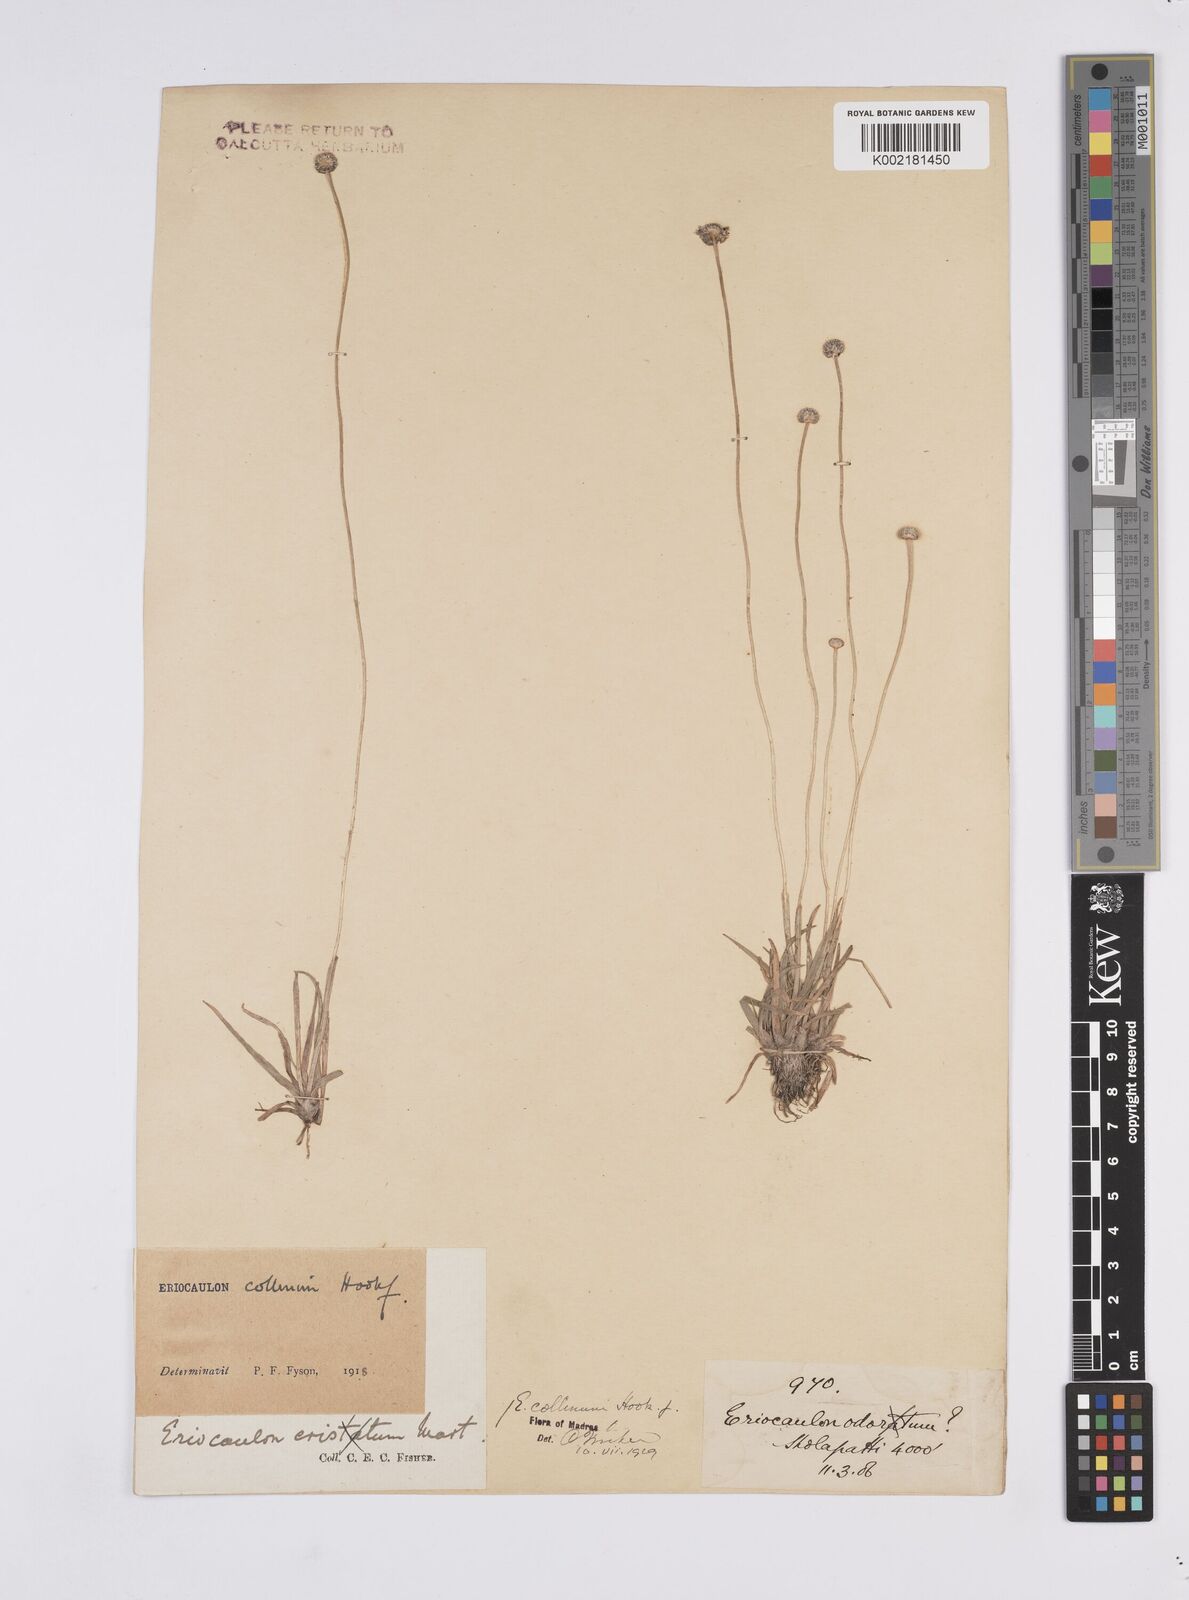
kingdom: Plantae
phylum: Tracheophyta
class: Liliopsida
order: Poales
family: Eriocaulaceae
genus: Eriocaulon
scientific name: Eriocaulon odoratum
